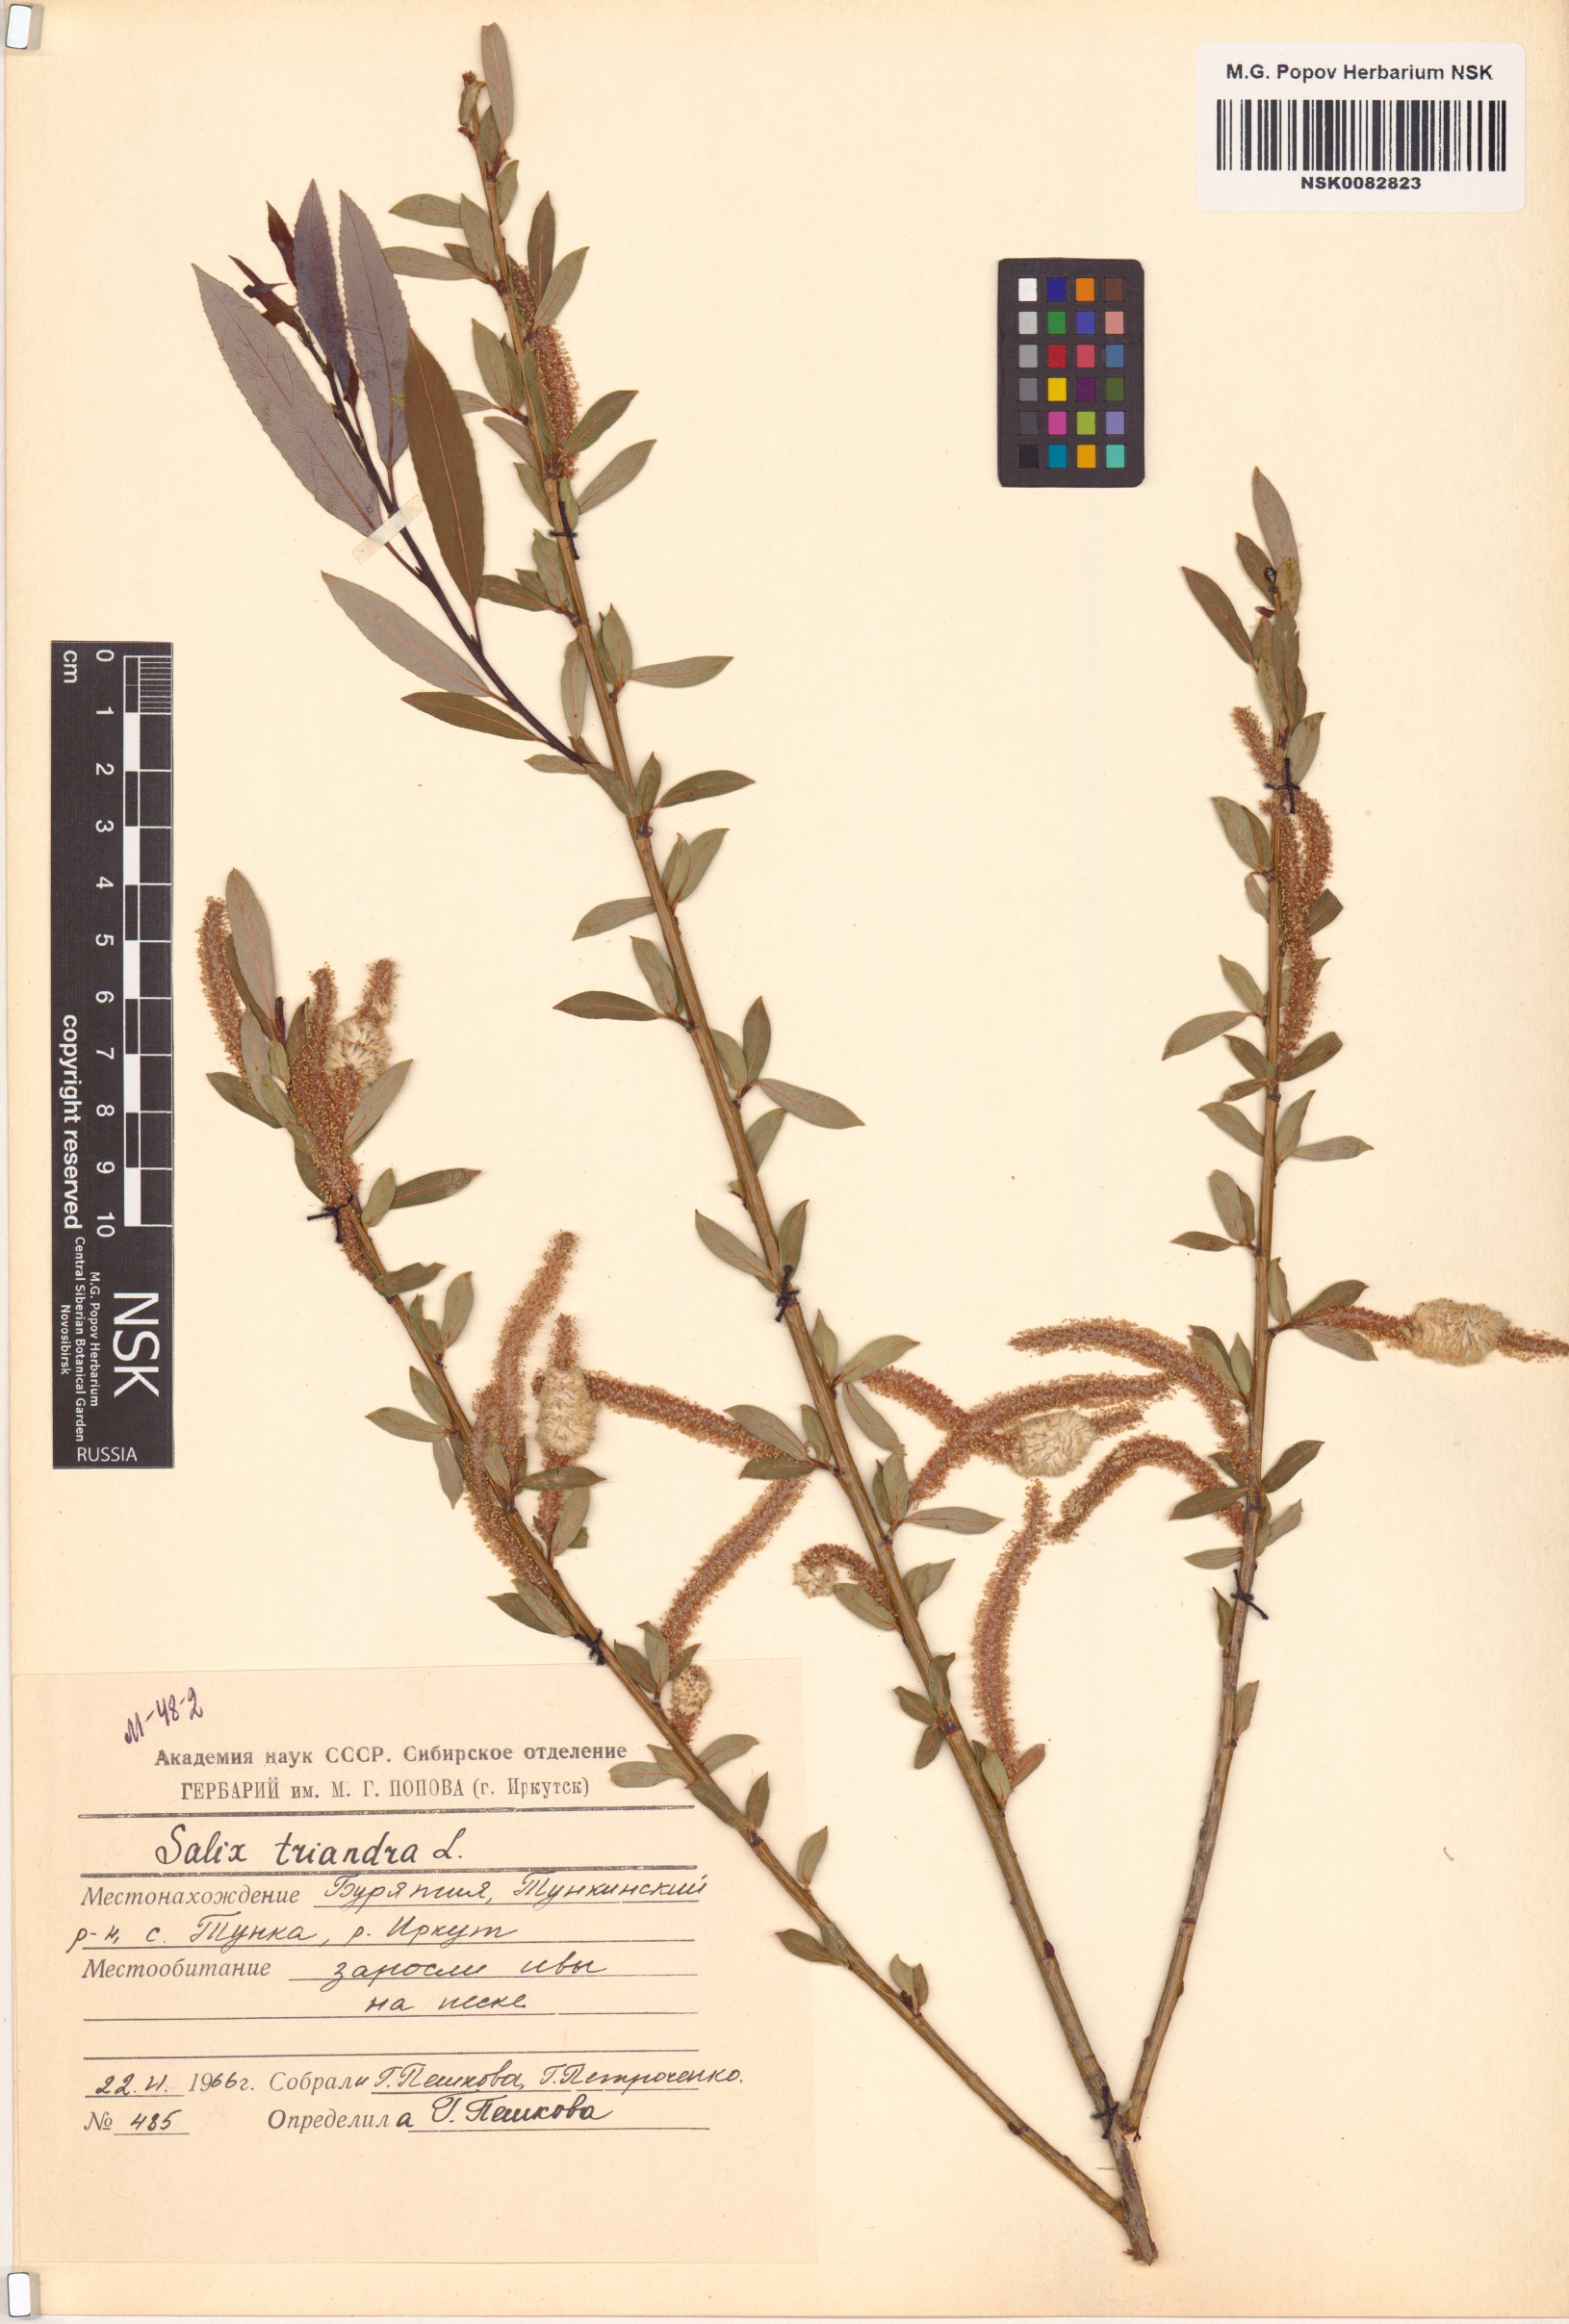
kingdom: Plantae
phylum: Tracheophyta
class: Magnoliopsida
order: Malpighiales
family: Salicaceae
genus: Salix
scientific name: Salix triandra
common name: Almond willow
